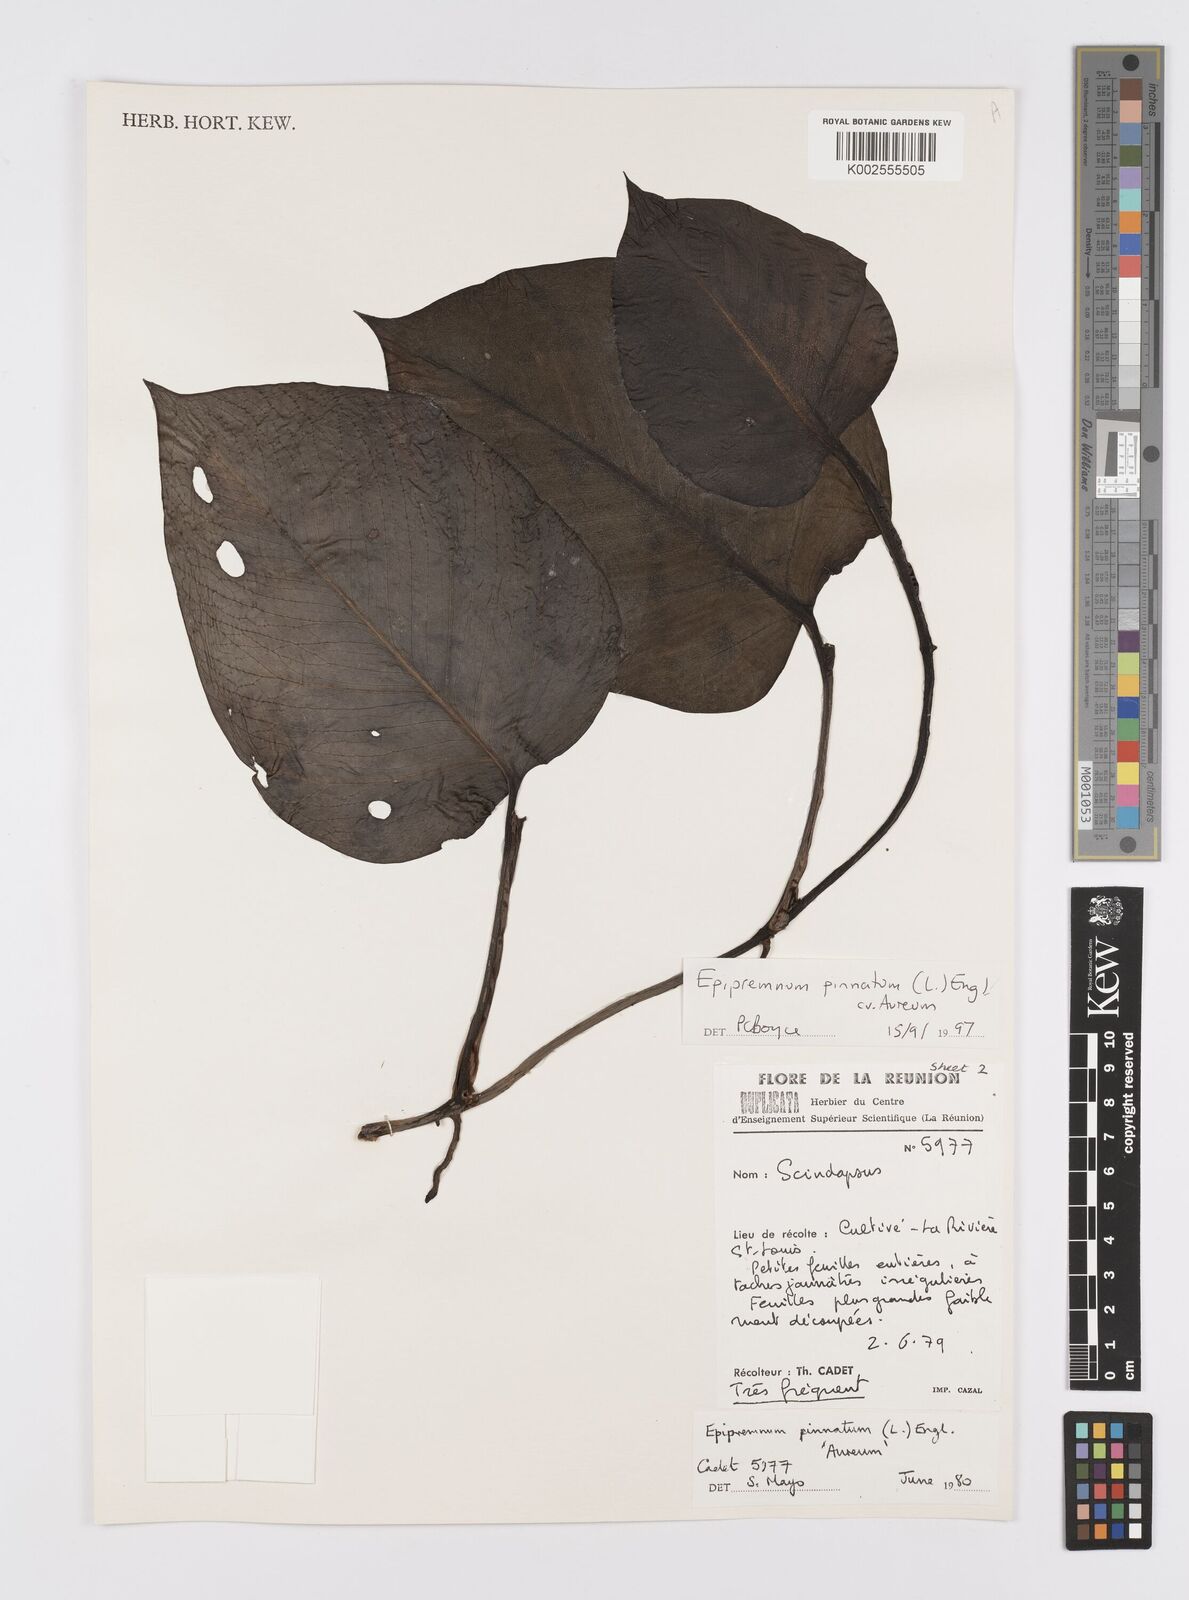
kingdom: Plantae
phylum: Tracheophyta
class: Liliopsida
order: Alismatales
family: Araceae
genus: Epipremnum
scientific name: Epipremnum aureum
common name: Golden hunter's-robe
